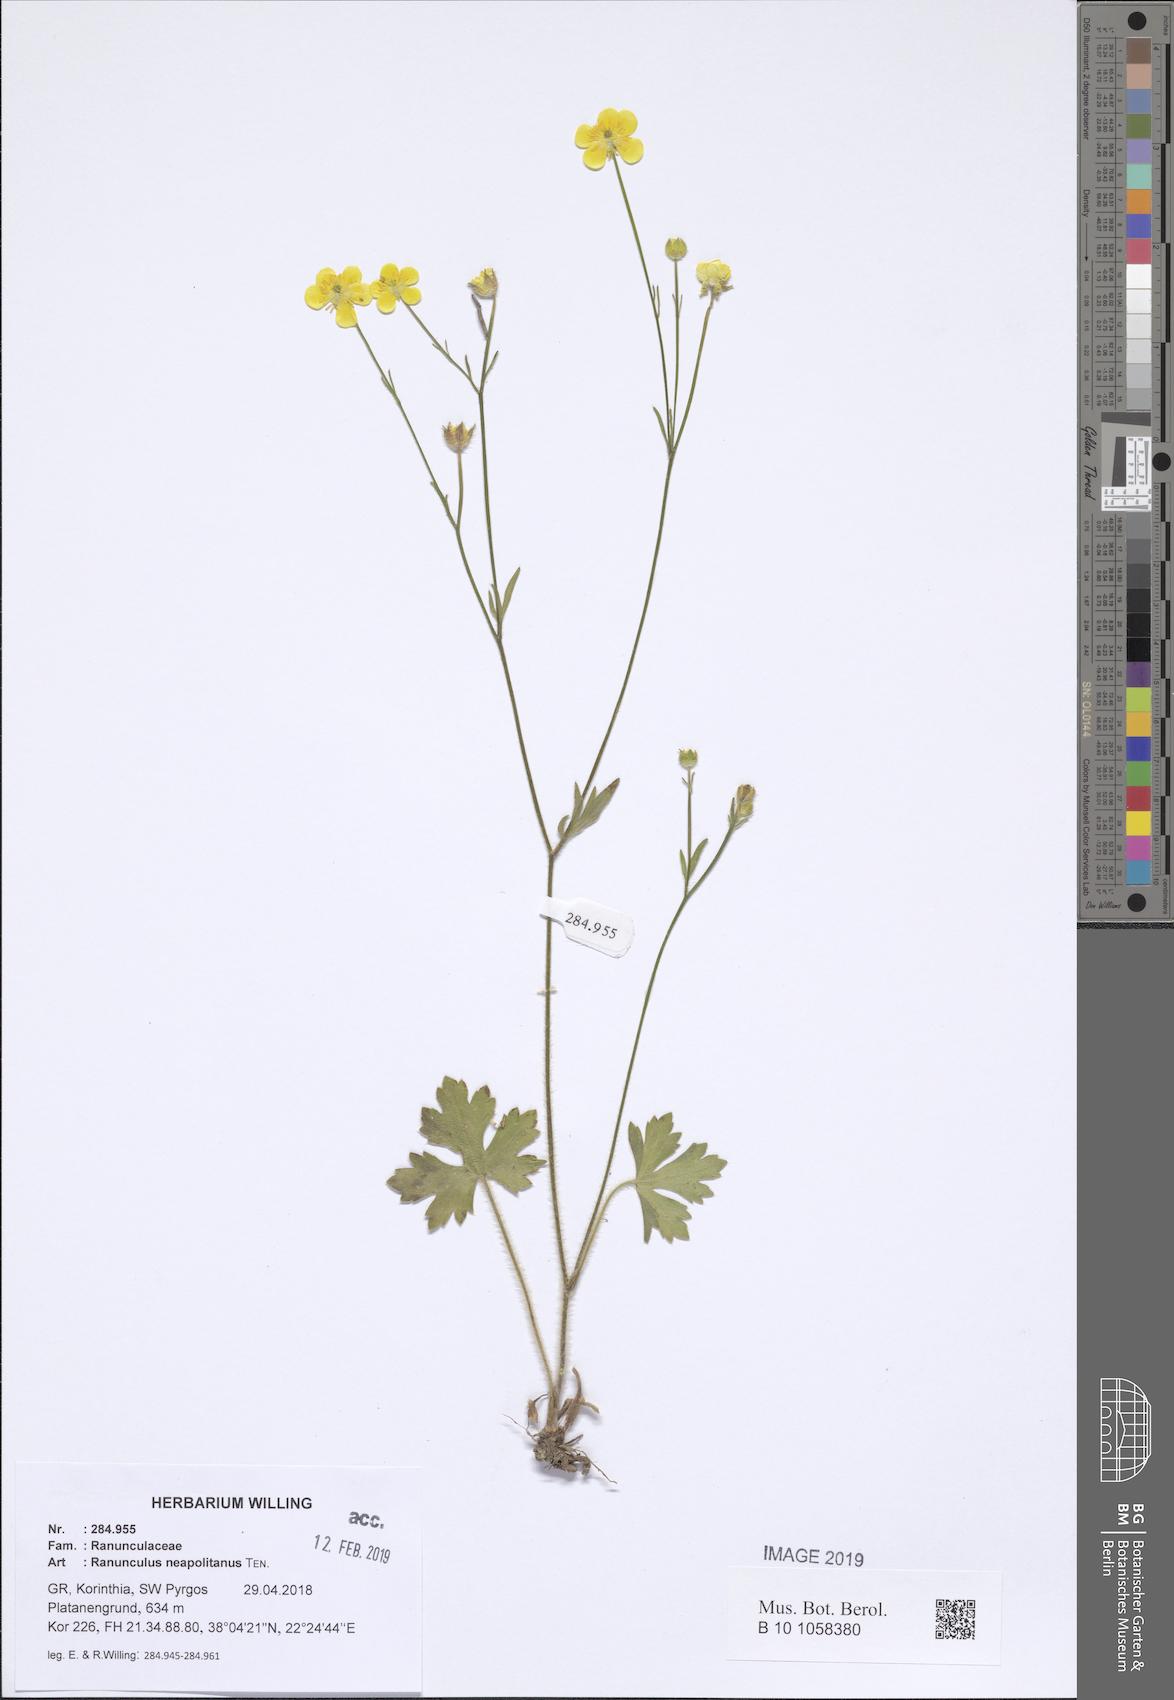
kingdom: Plantae
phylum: Tracheophyta
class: Magnoliopsida
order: Ranunculales
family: Ranunculaceae
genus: Ranunculus
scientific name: Ranunculus neapolitanus
